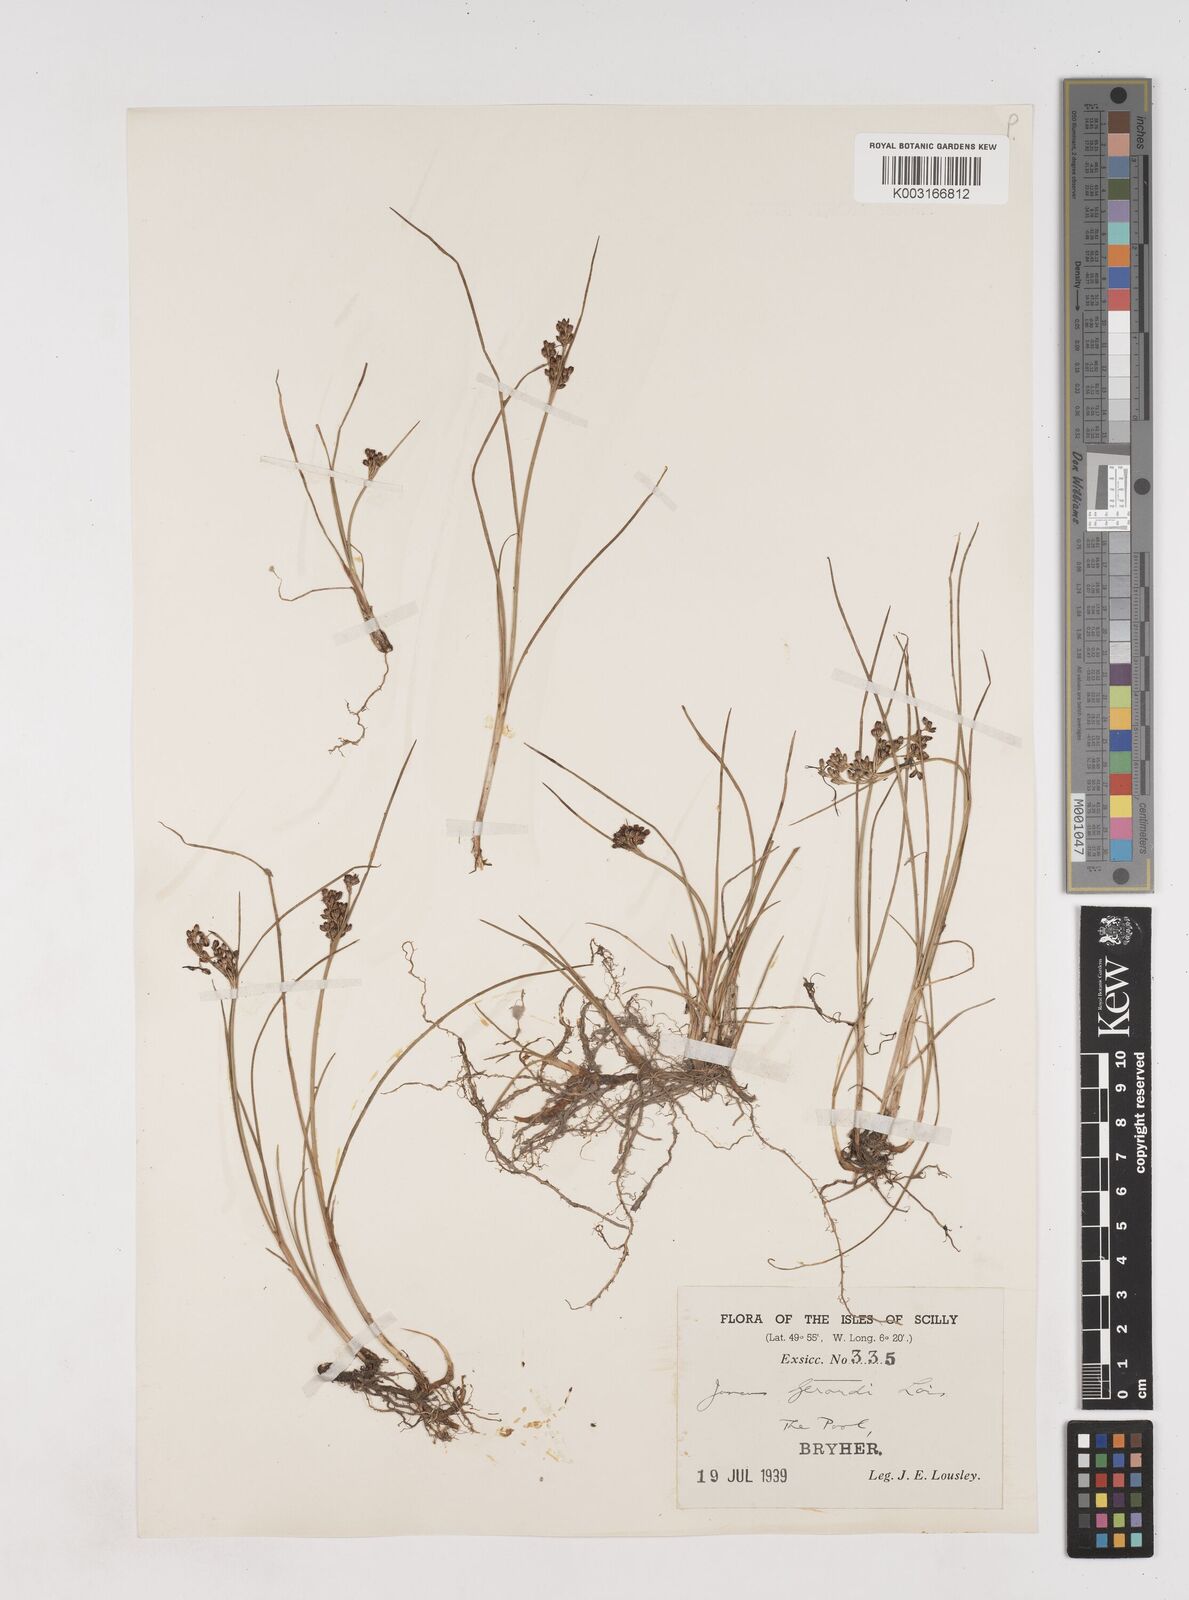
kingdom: Plantae
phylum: Tracheophyta
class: Liliopsida
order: Poales
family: Juncaceae
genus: Juncus
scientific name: Juncus gerardi
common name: Saltmarsh rush
